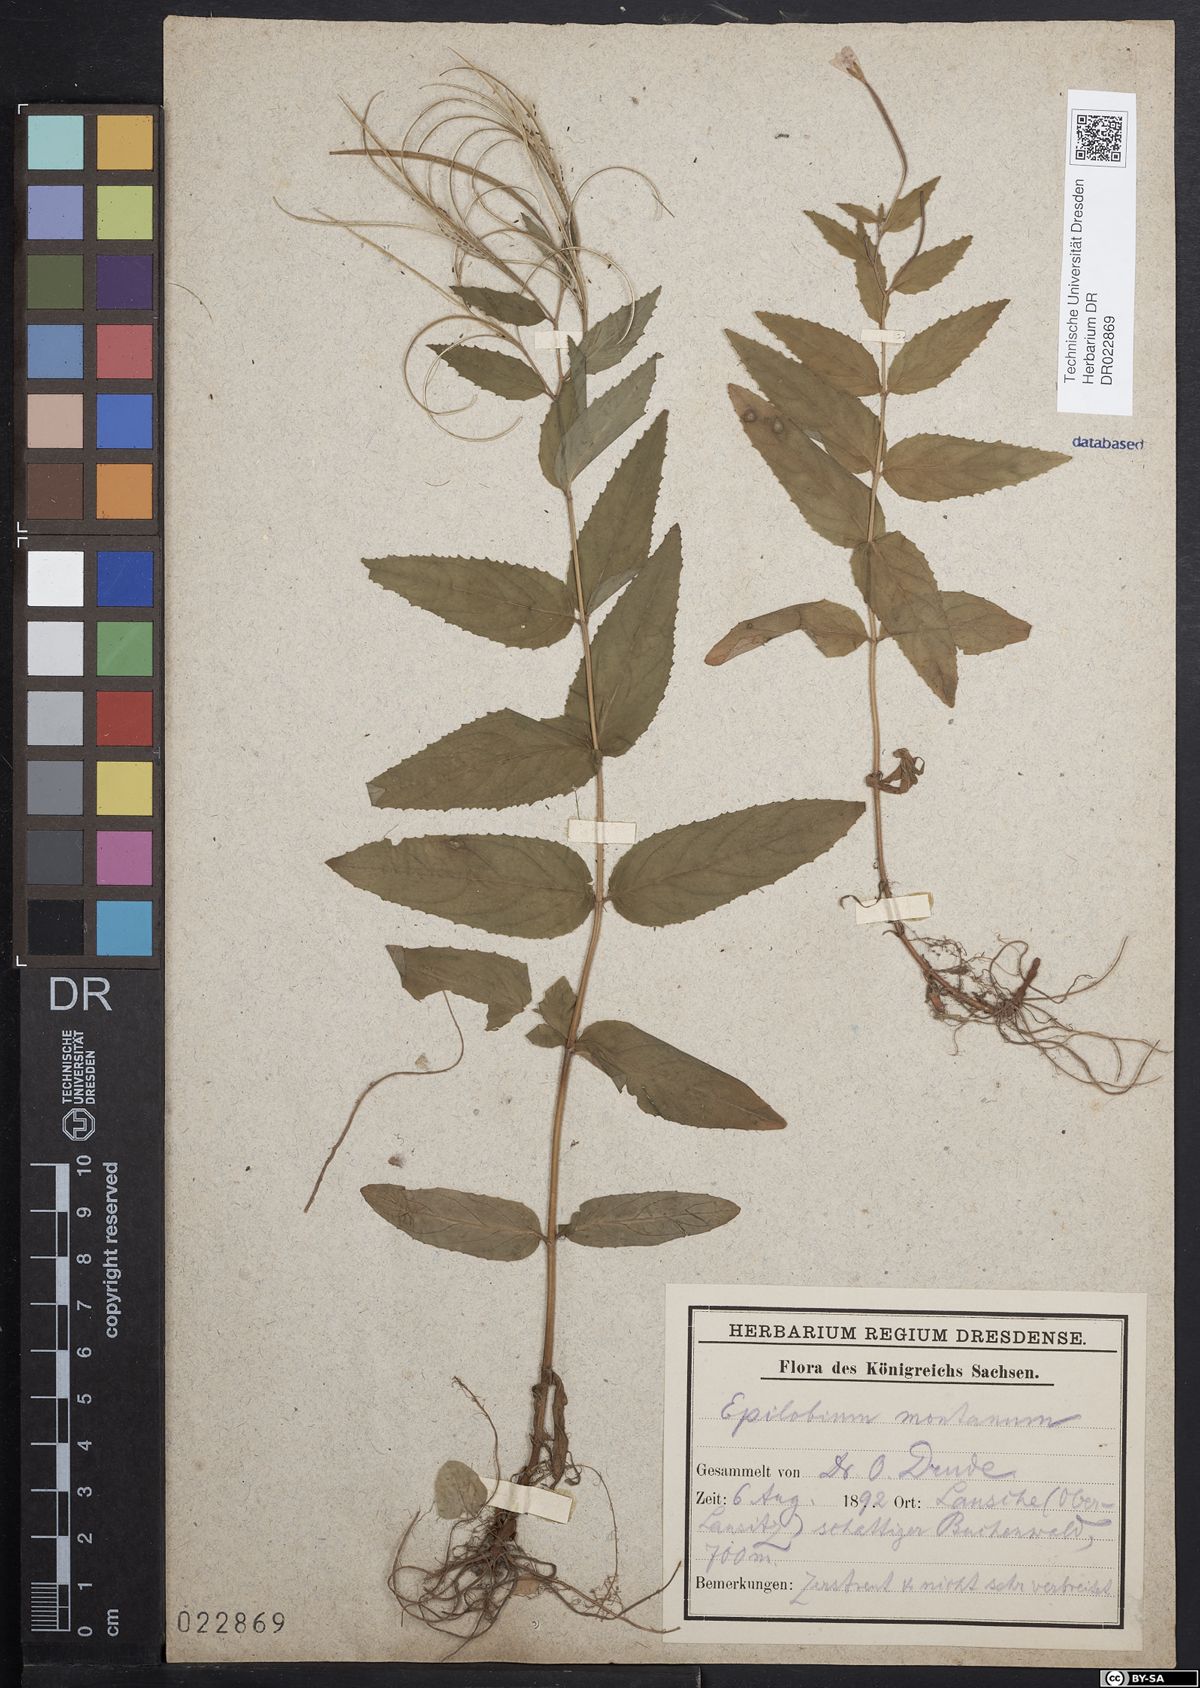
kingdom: Plantae
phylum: Tracheophyta
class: Magnoliopsida
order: Myrtales
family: Onagraceae
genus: Epilobium
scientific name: Epilobium montanum
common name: Broad-leaved willowherb
